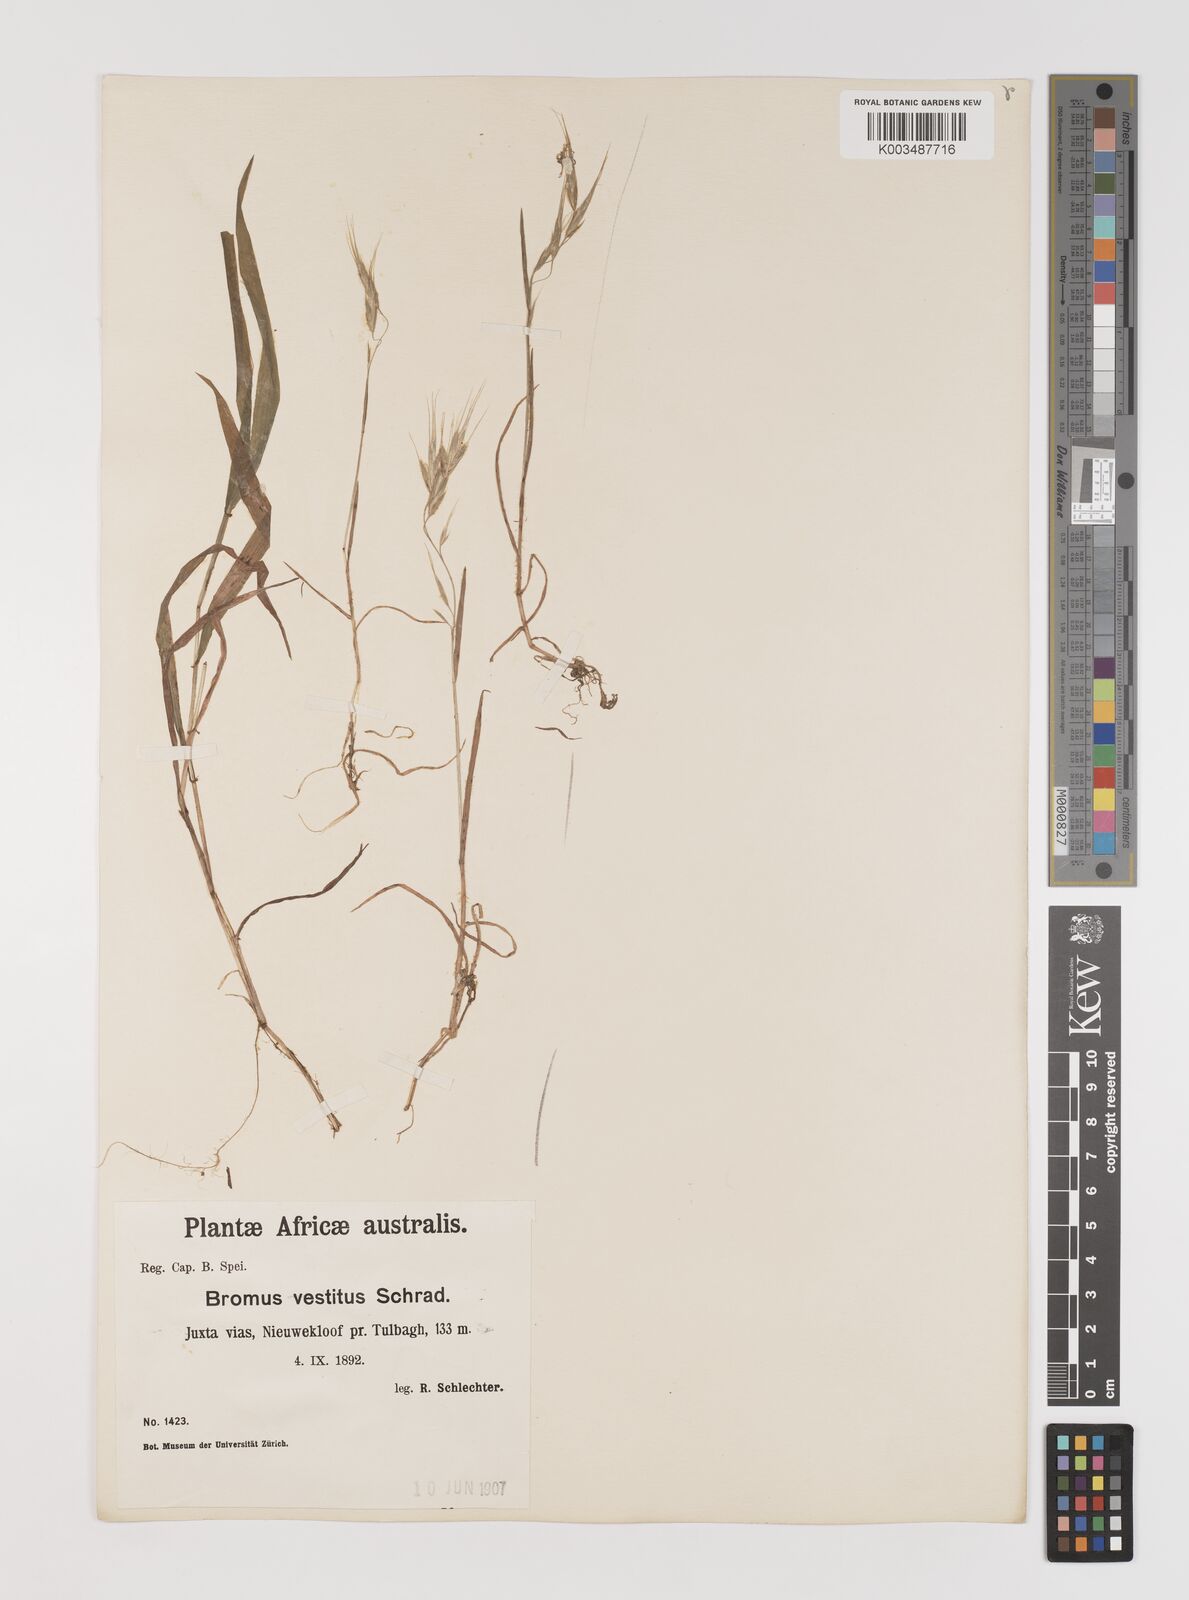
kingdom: Plantae
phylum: Tracheophyta
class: Liliopsida
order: Poales
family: Poaceae
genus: Bromus
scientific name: Bromus pectinatus
